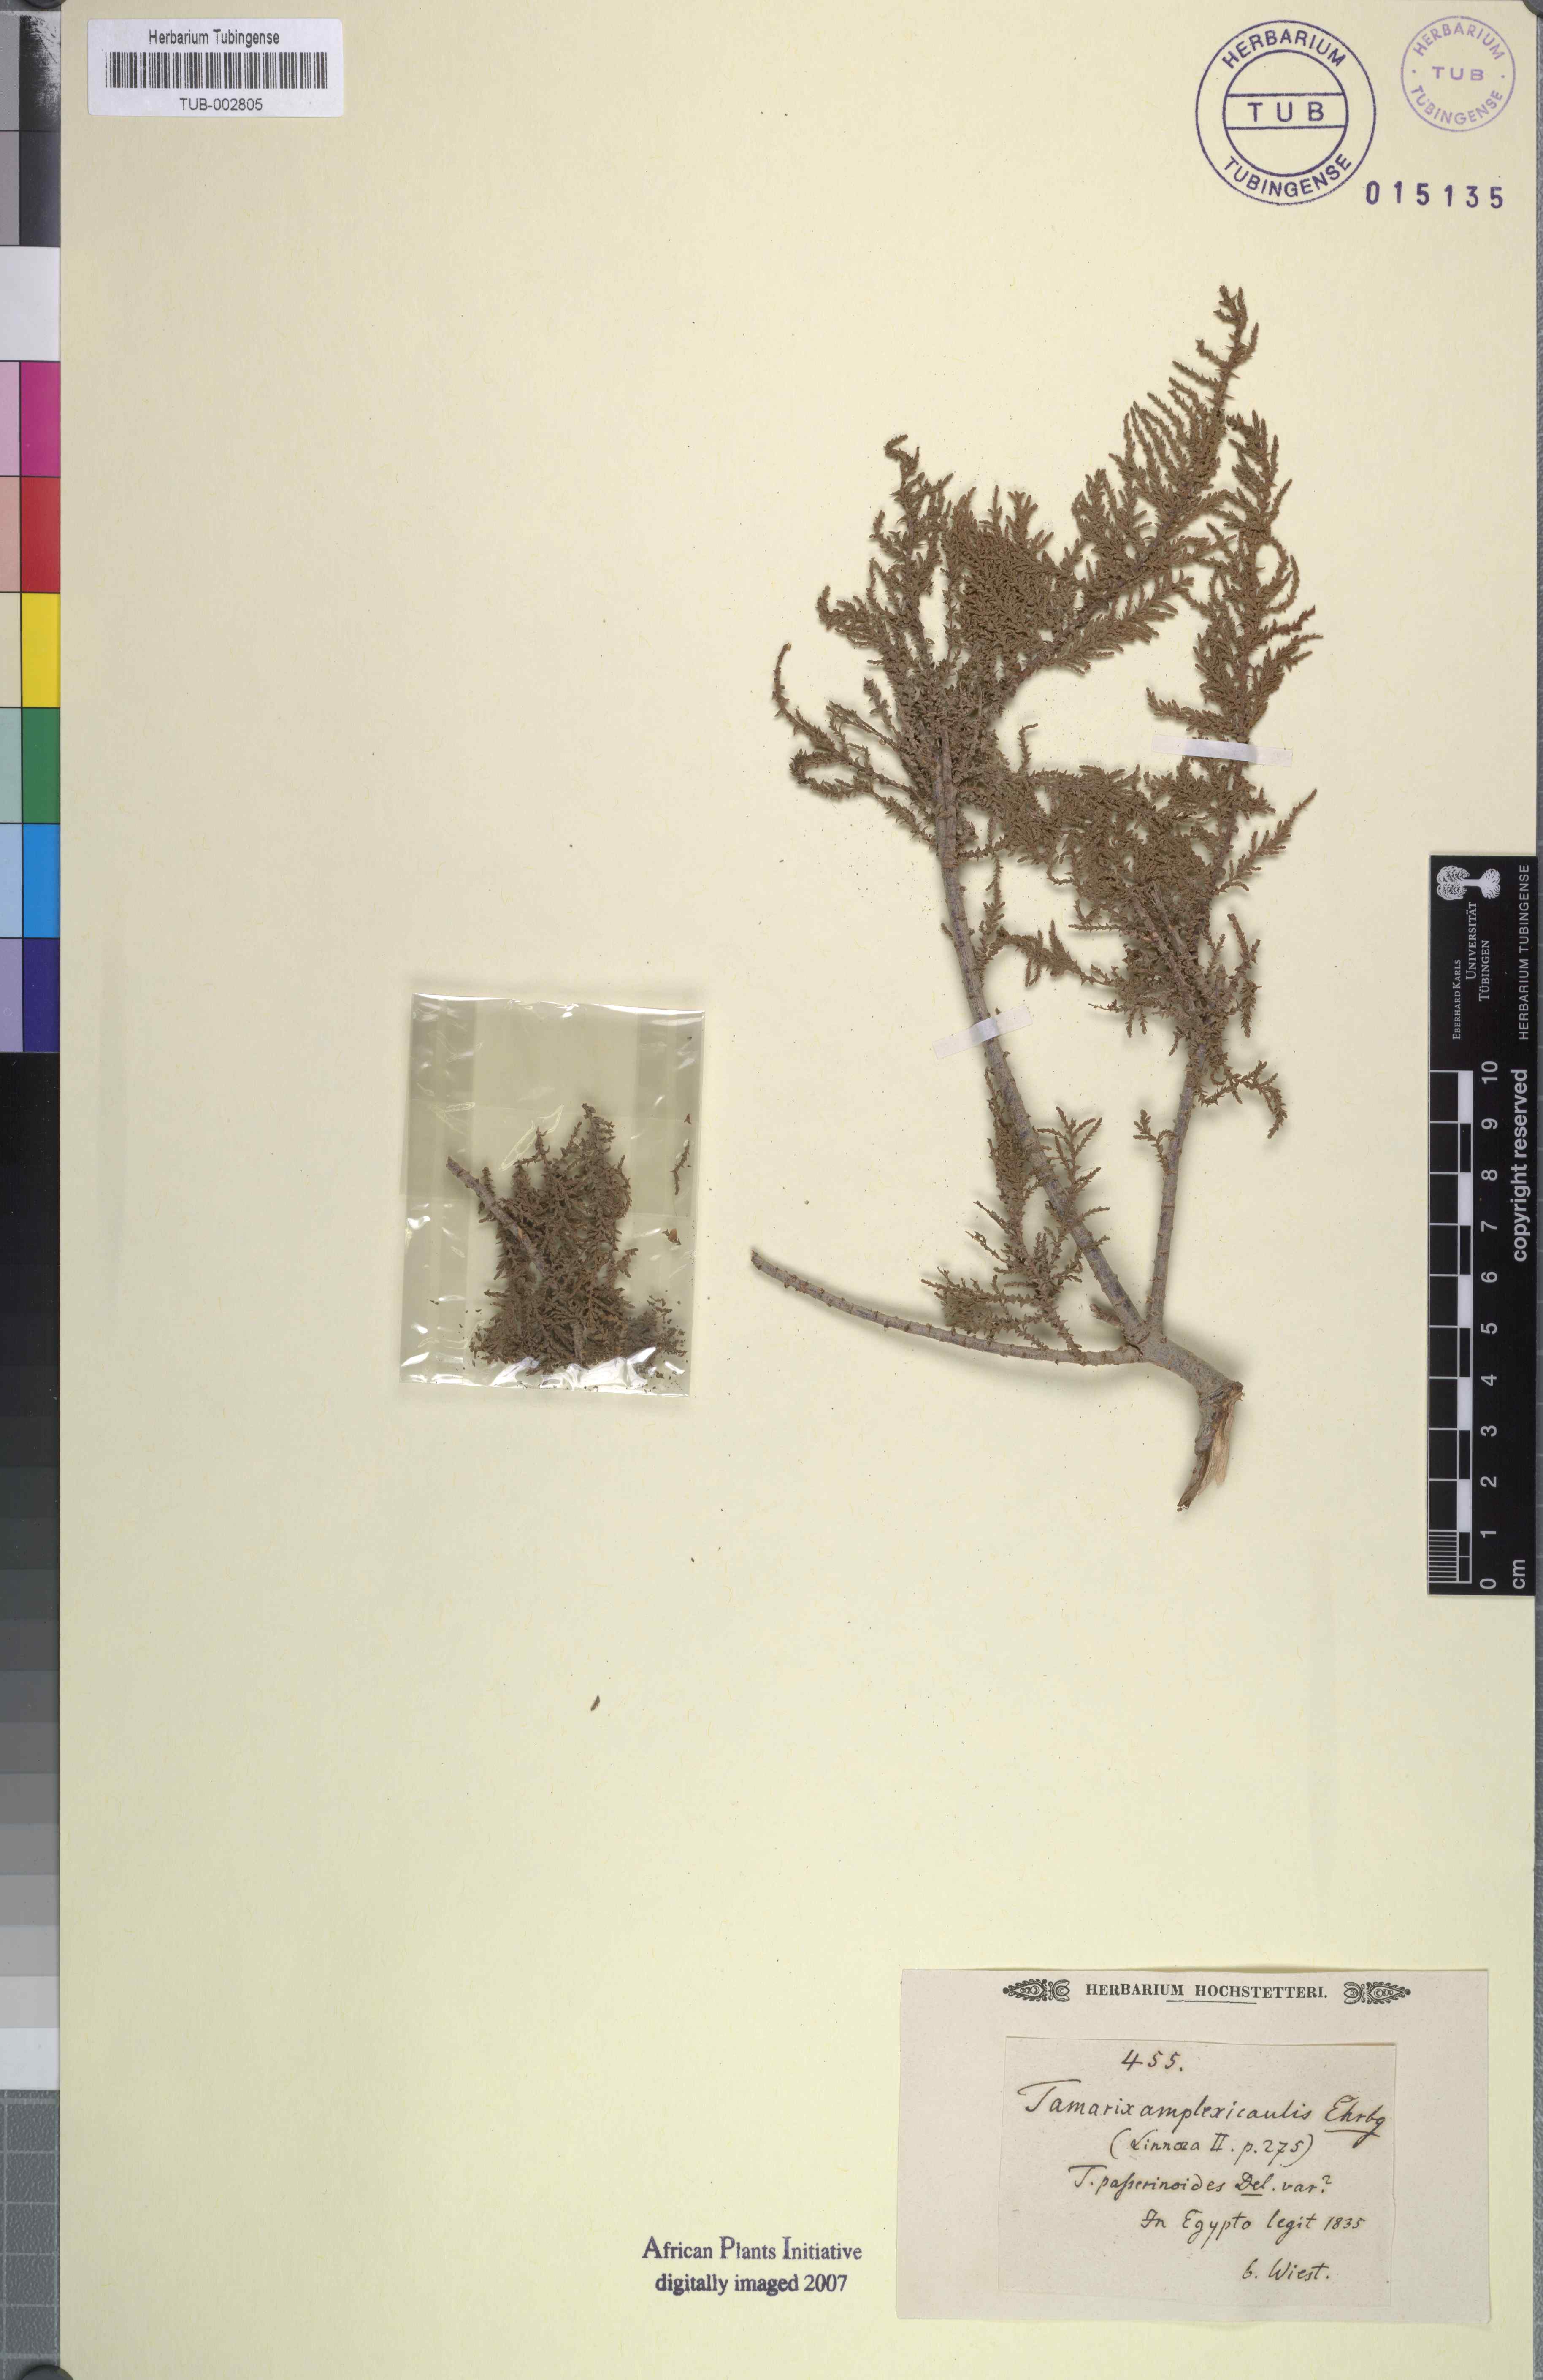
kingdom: Plantae
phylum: Tracheophyta
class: Magnoliopsida
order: Caryophyllales
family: Tamaricaceae
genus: Tamarix
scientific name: Tamarix amplexicaulis
